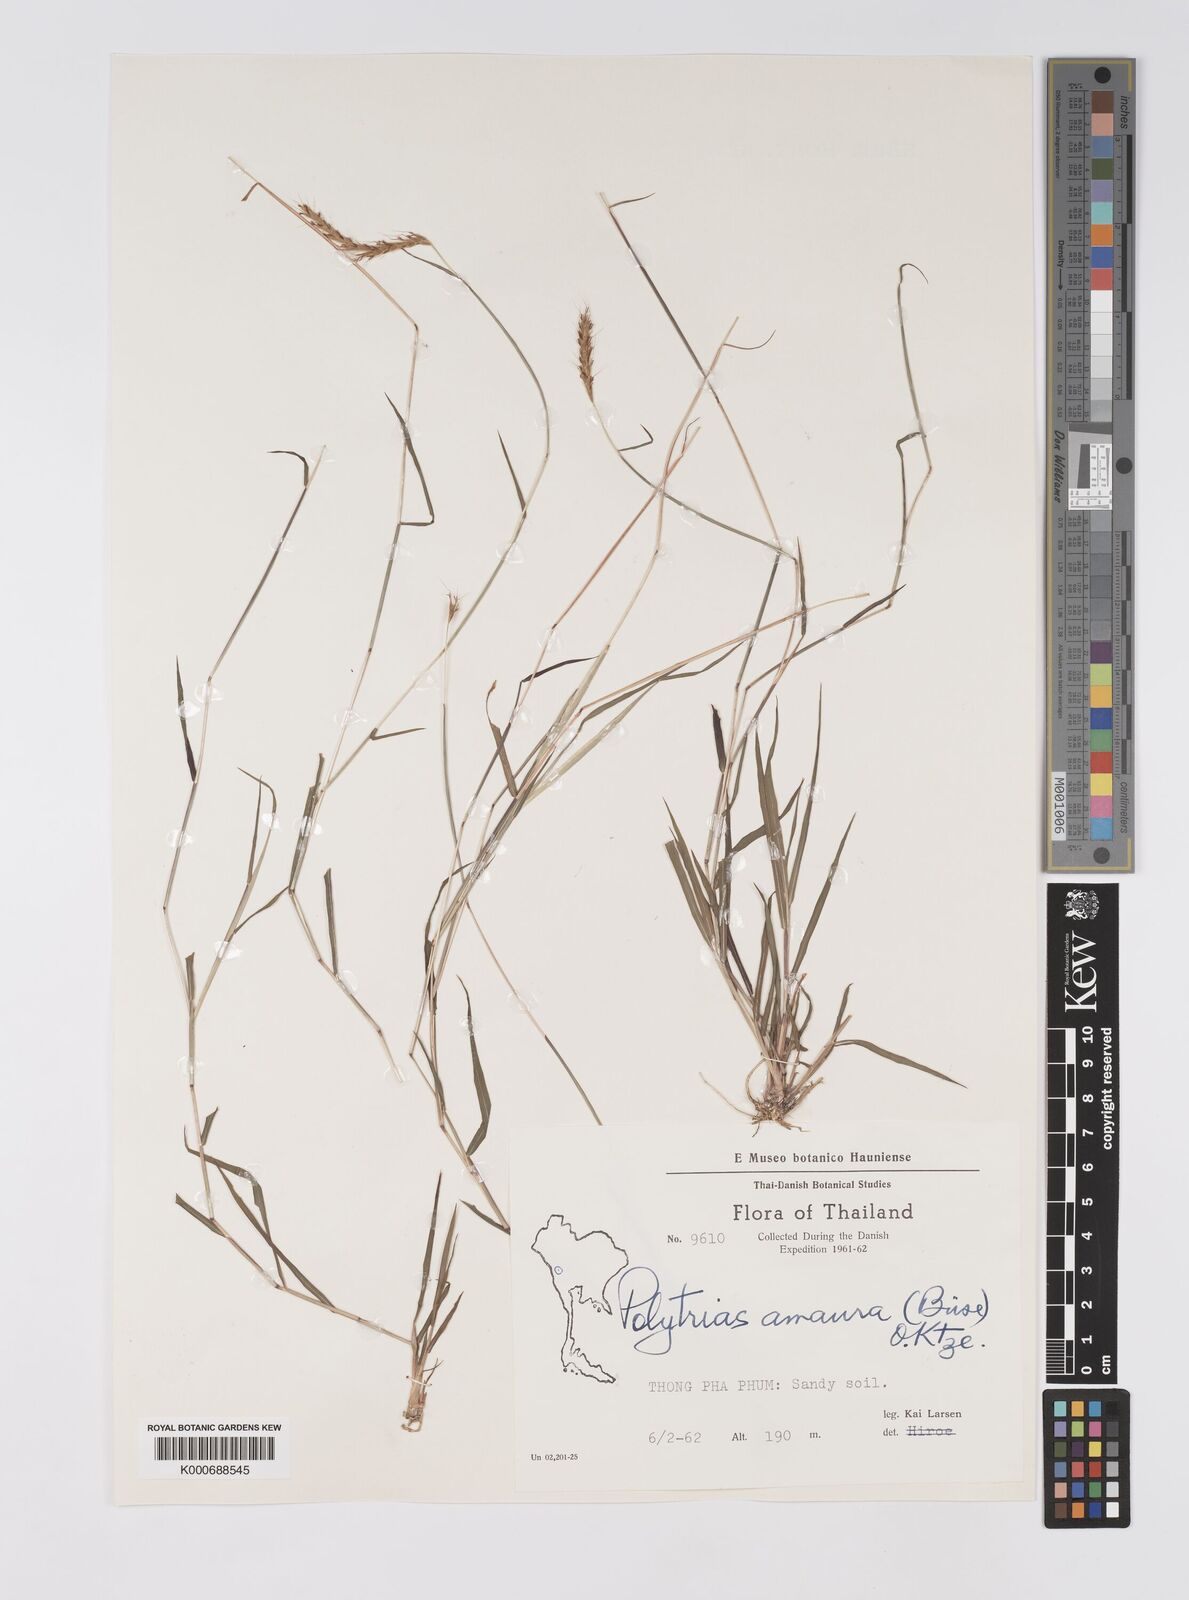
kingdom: Plantae
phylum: Tracheophyta
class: Liliopsida
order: Poales
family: Poaceae
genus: Polytrias
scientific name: Polytrias indica
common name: Indian murainagrass
